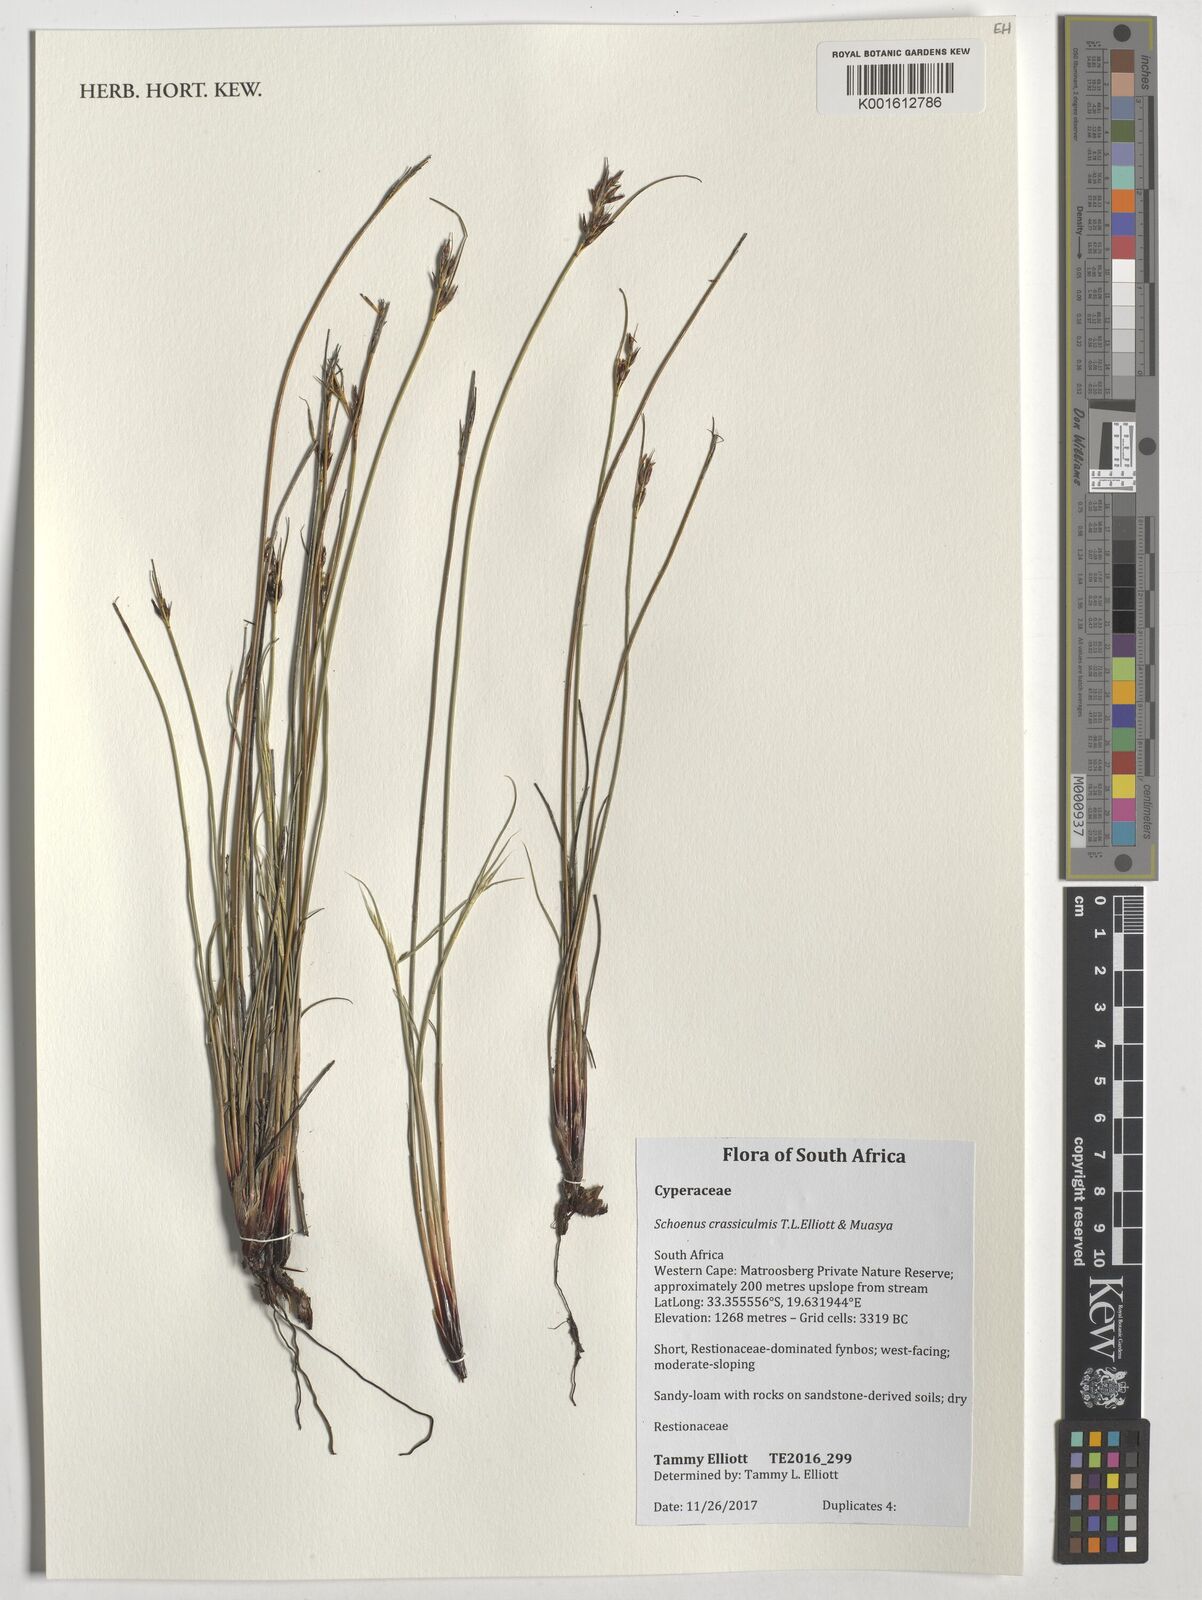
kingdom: Plantae
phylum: Tracheophyta
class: Liliopsida
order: Poales
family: Cyperaceae
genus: Schoenus
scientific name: Schoenus crassiculmis
